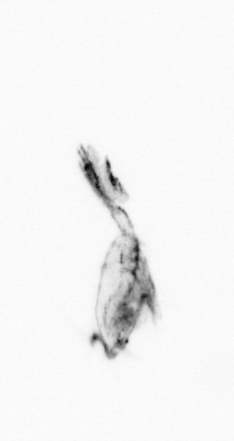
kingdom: Animalia
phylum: Arthropoda
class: Copepoda
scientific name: Copepoda
